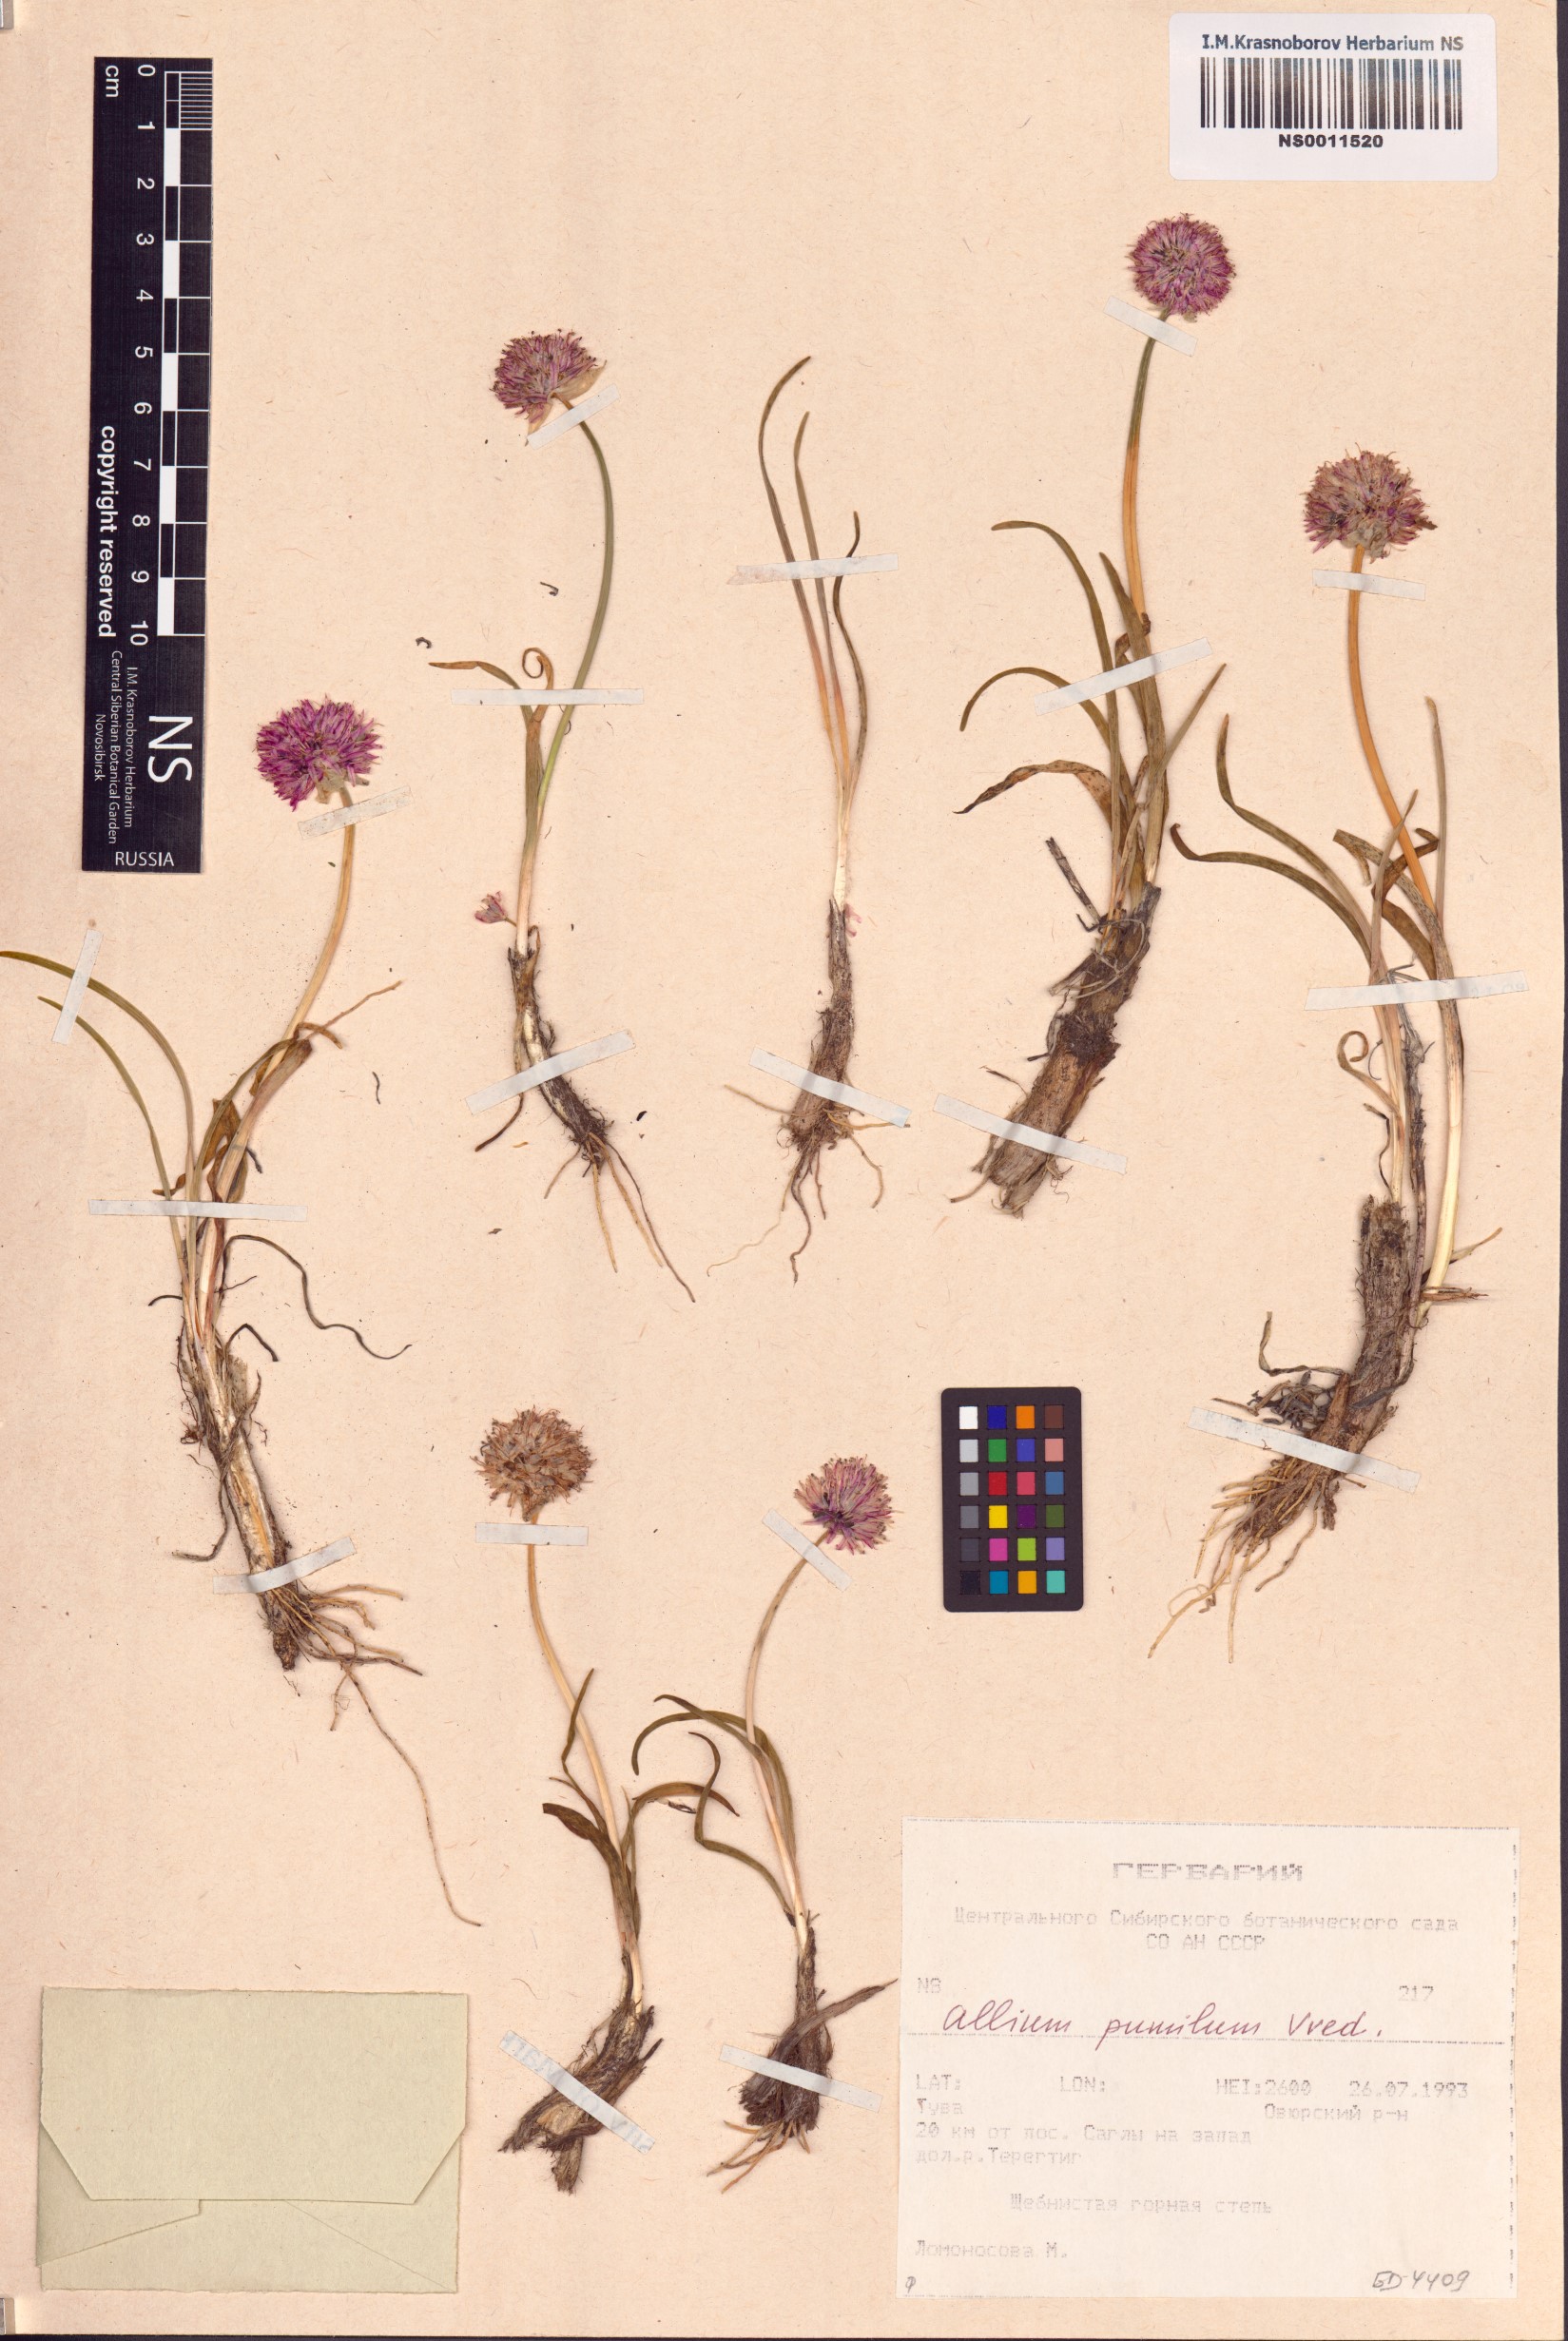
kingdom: Plantae
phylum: Tracheophyta
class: Liliopsida
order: Asparagales
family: Amaryllidaceae
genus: Allium
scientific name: Allium pumilum
